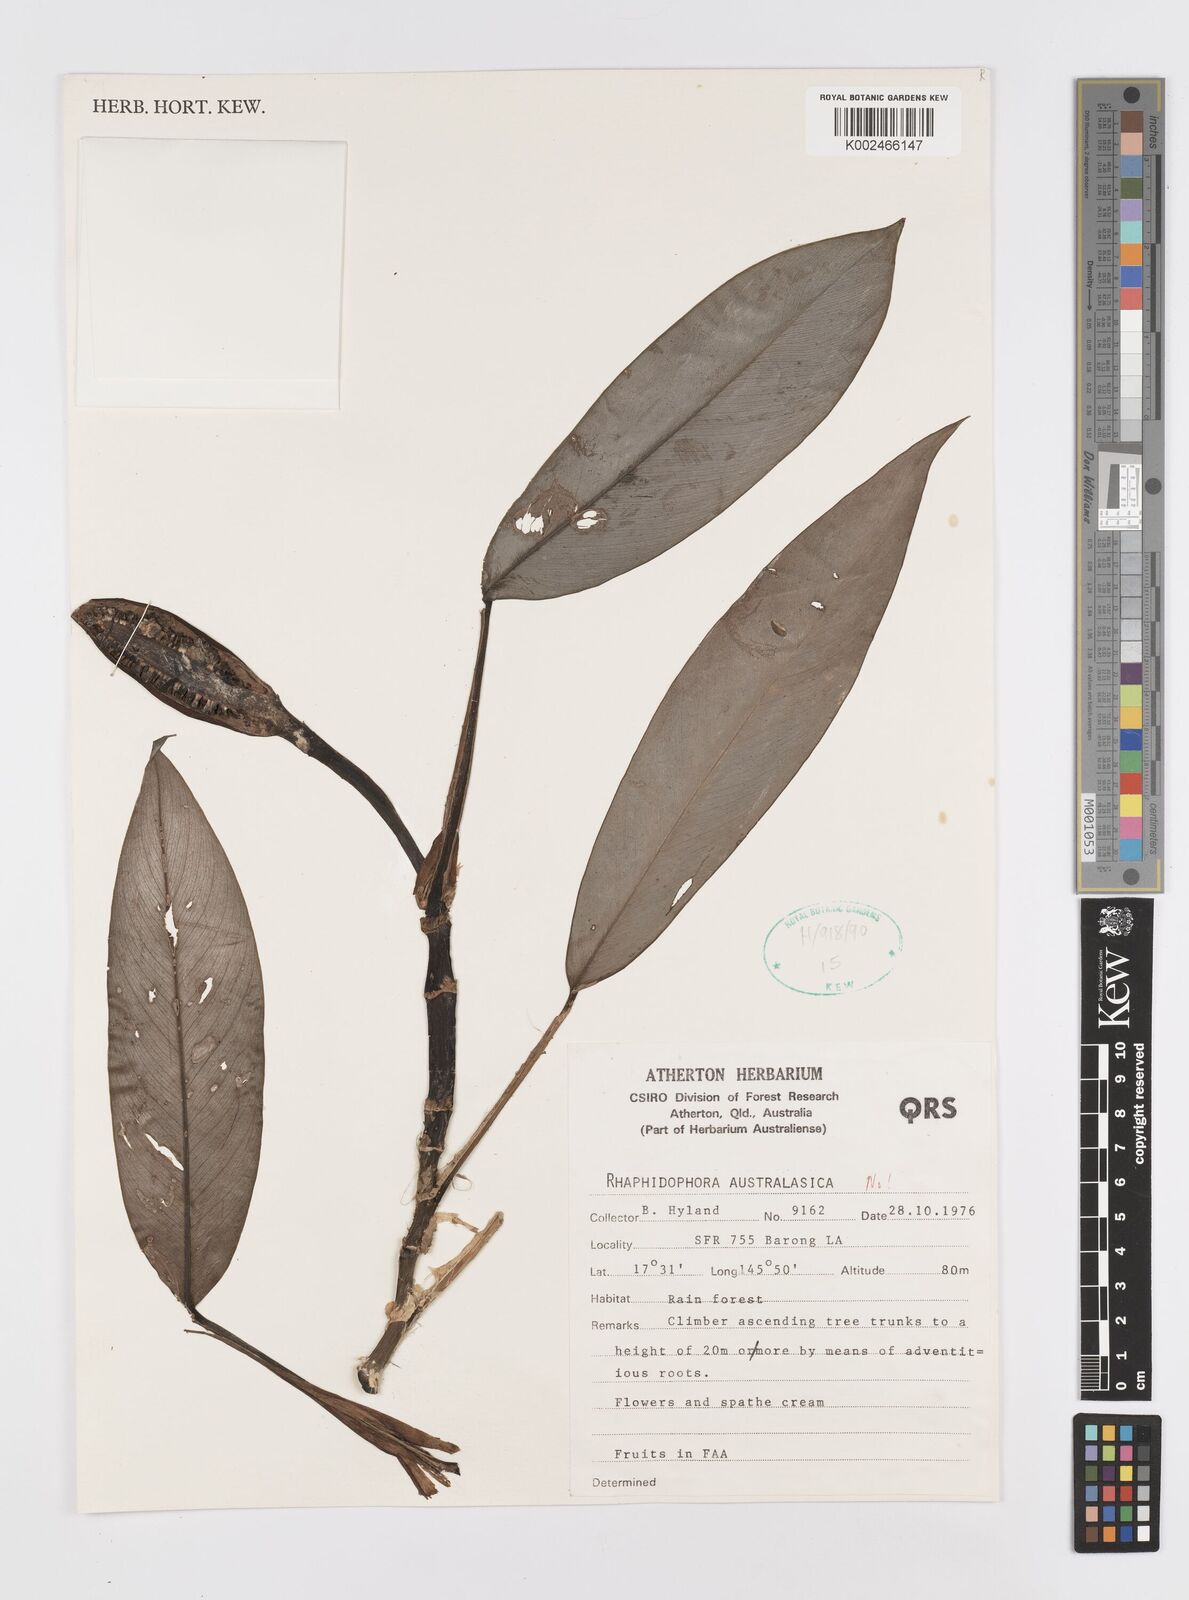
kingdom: Plantae
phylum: Tracheophyta
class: Liliopsida
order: Alismatales
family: Araceae
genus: Rhaphidophora
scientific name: Rhaphidophora australasica
